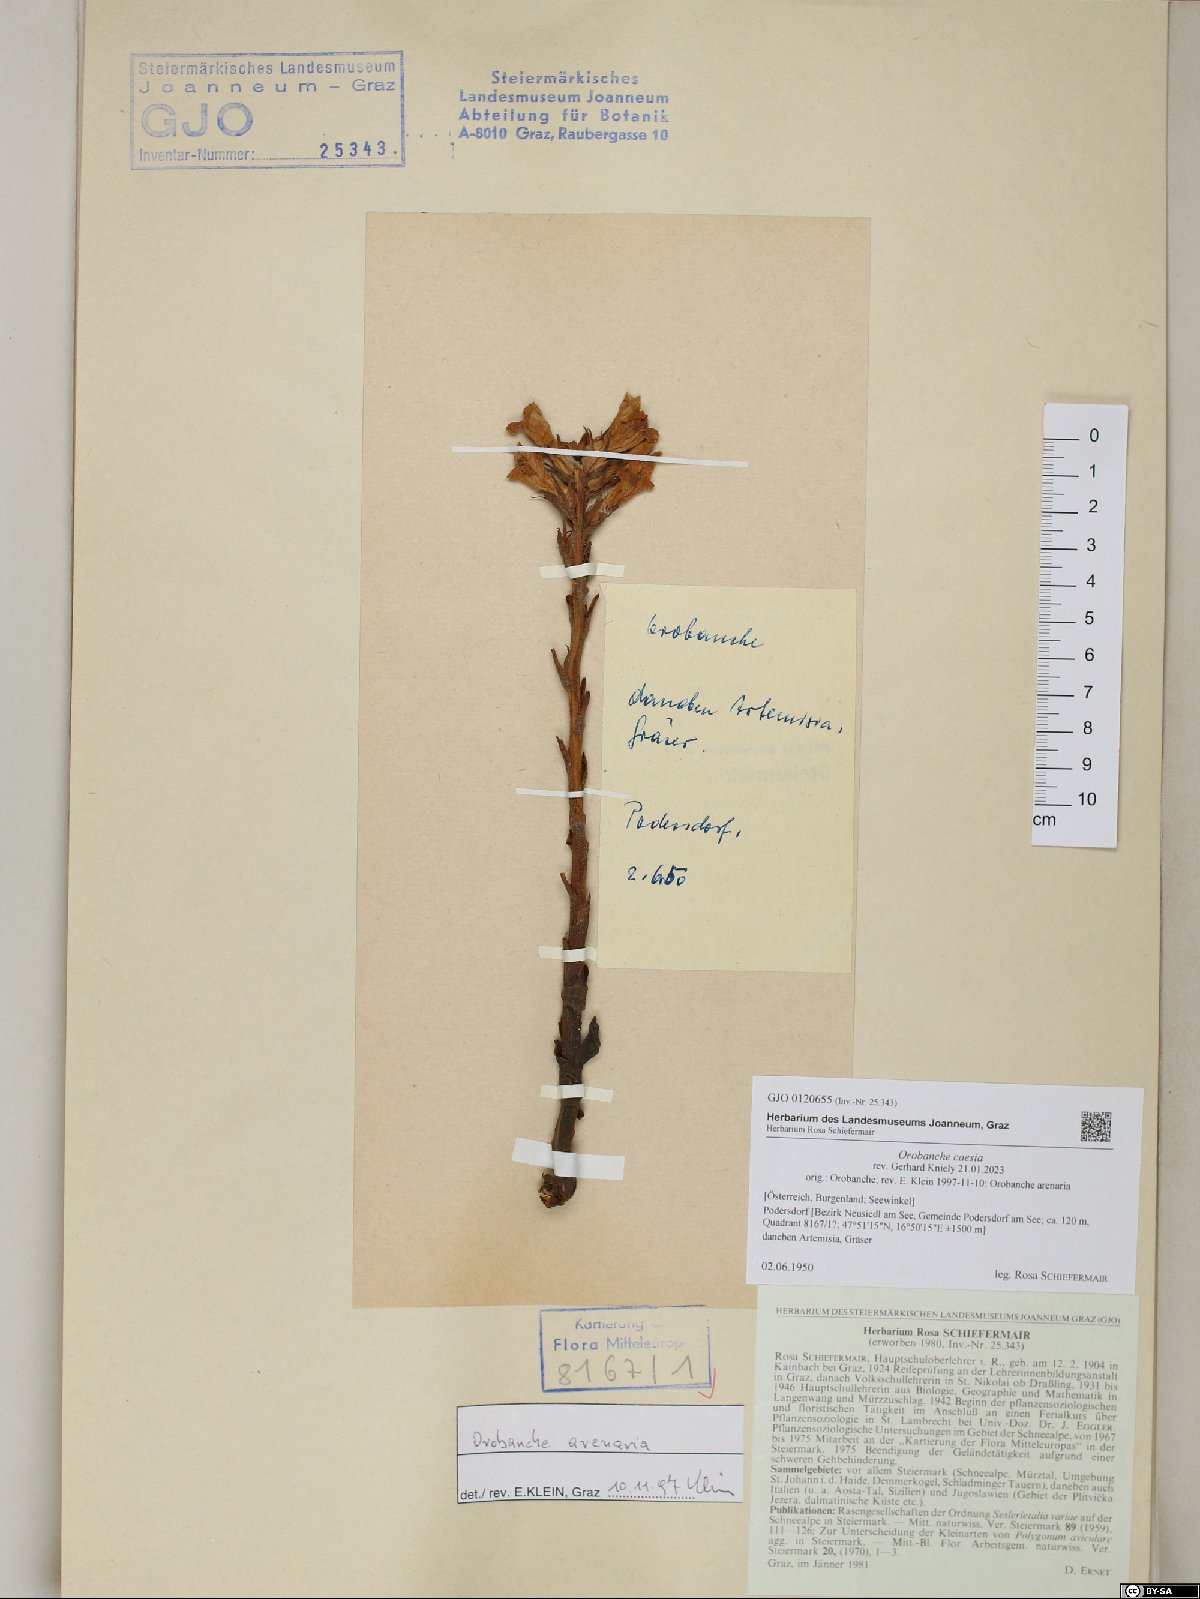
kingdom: Plantae
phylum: Tracheophyta
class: Magnoliopsida
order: Lamiales
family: Orobanchaceae
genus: Phelipanche
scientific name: Phelipanche caesia
